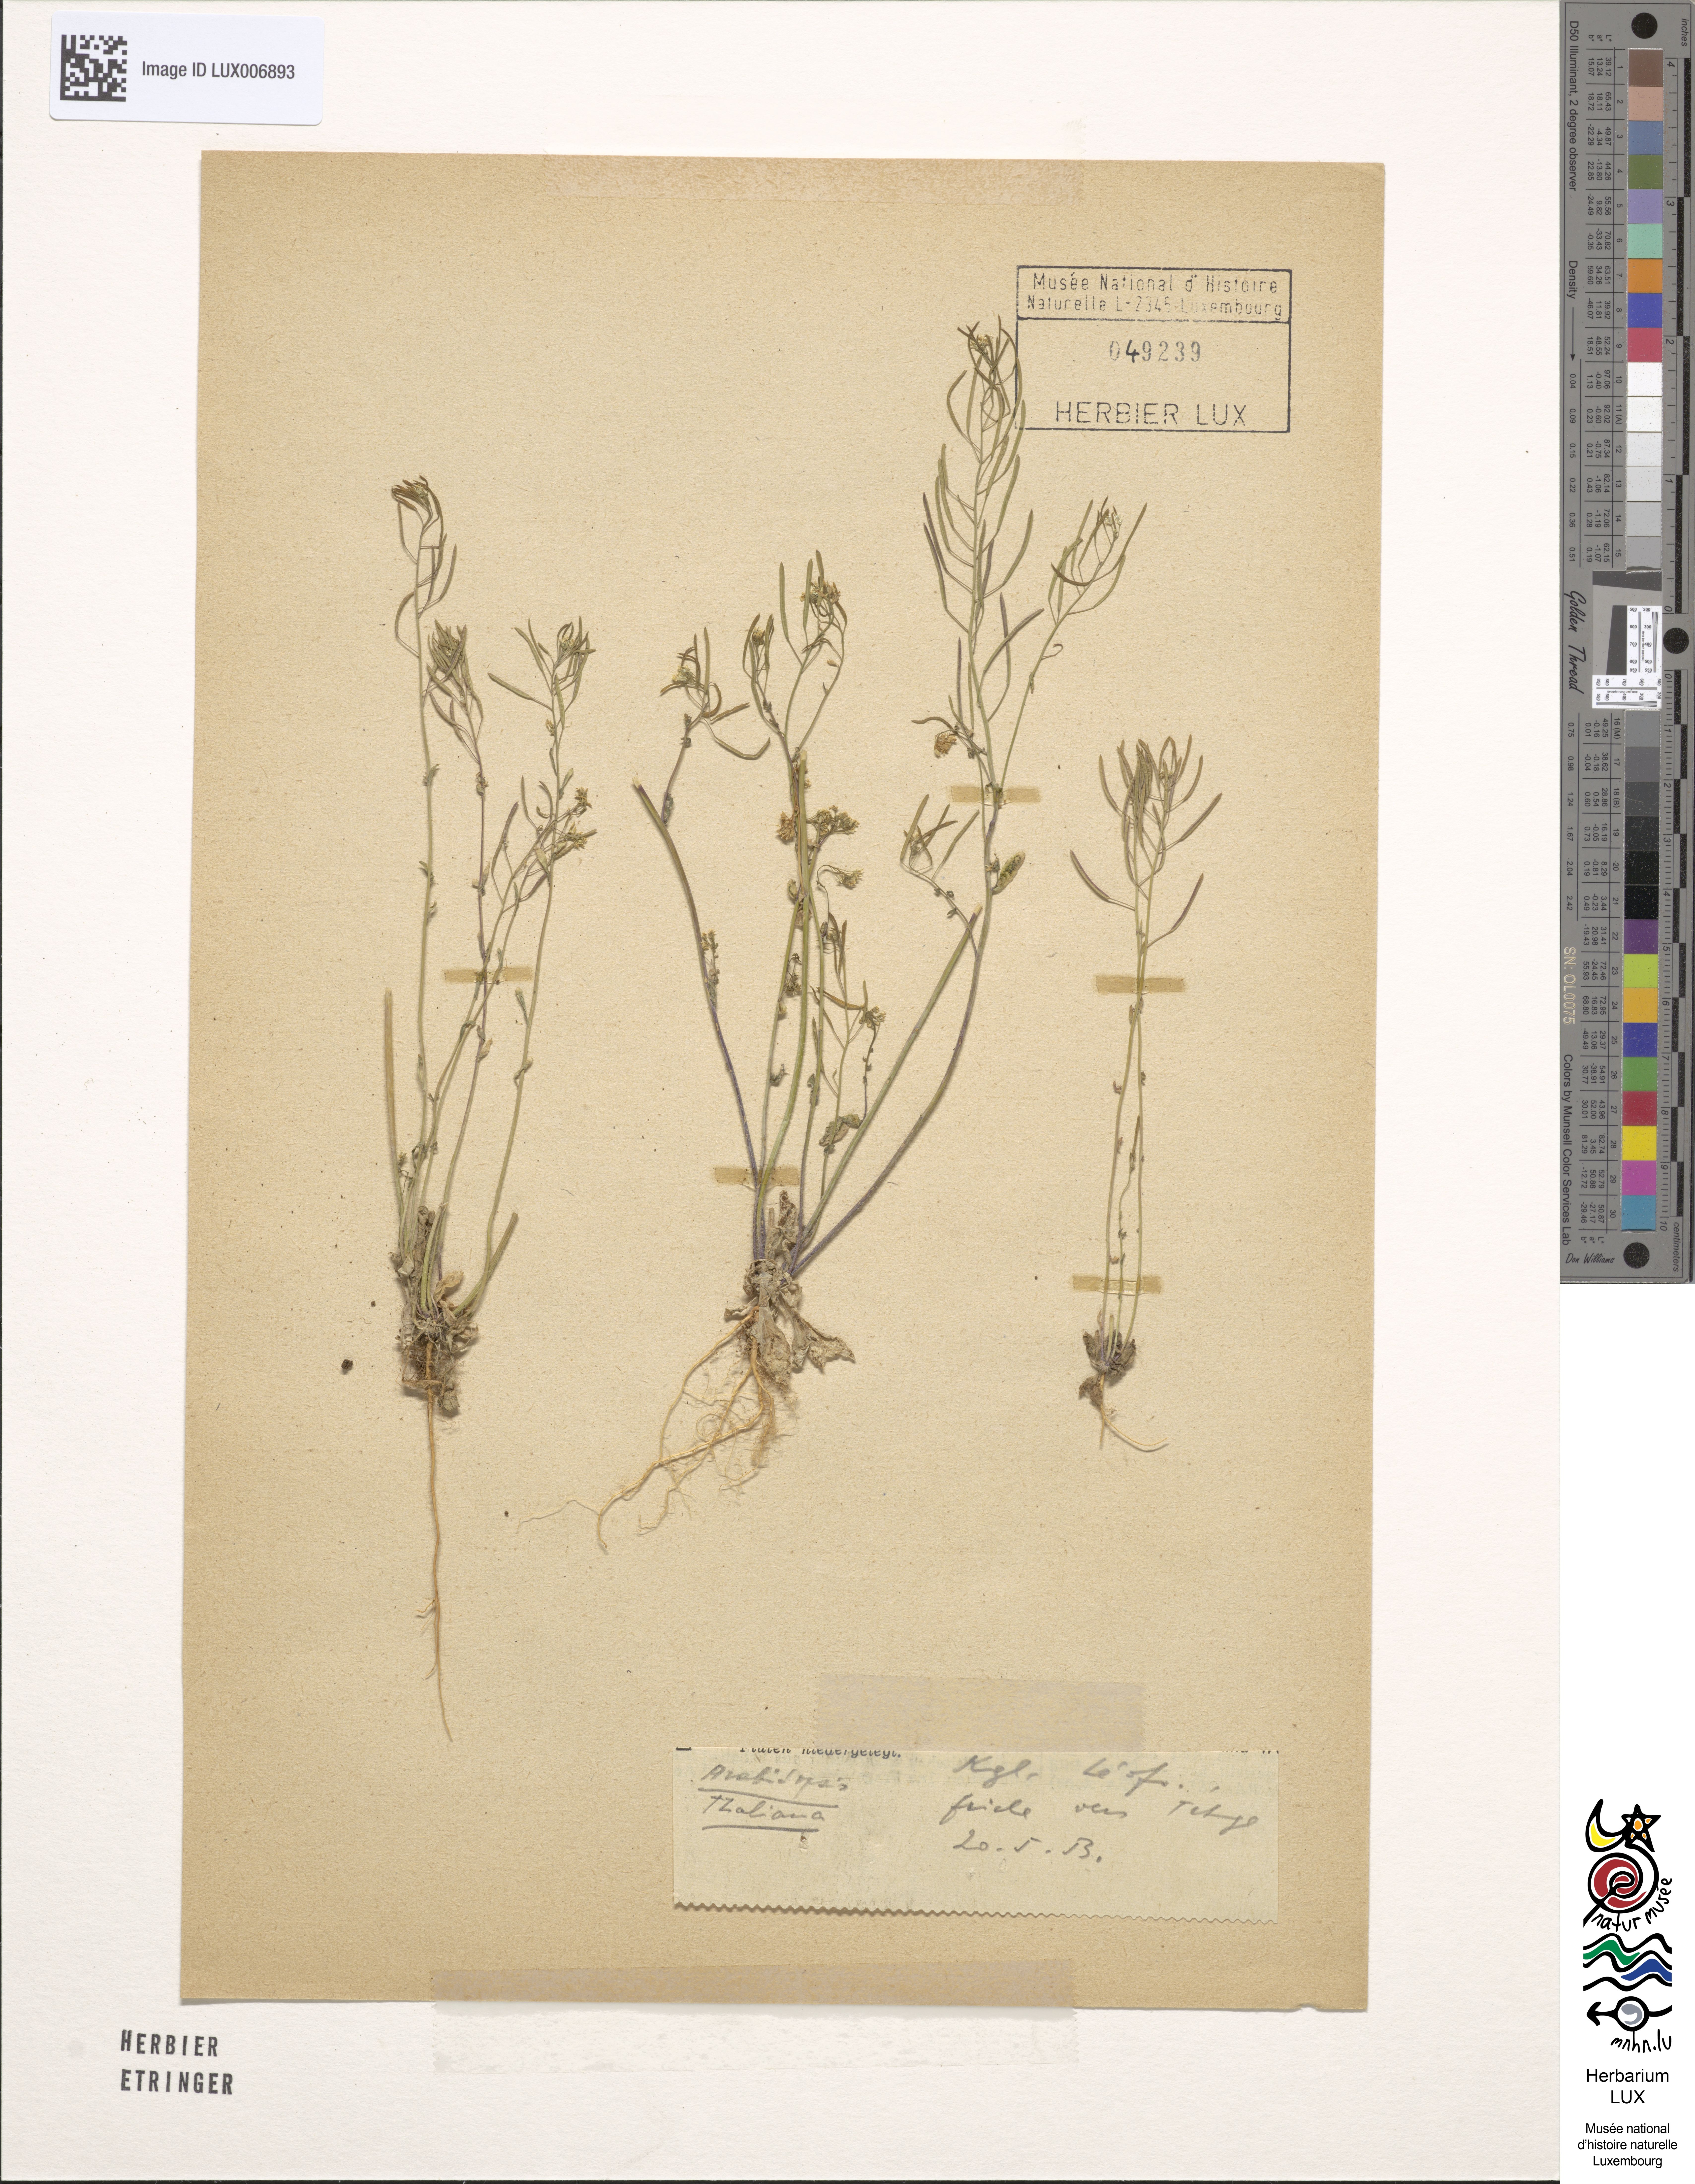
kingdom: Plantae
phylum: Tracheophyta
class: Magnoliopsida
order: Brassicales
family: Brassicaceae
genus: Arabidopsis
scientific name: Arabidopsis thaliana
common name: Thale cress
